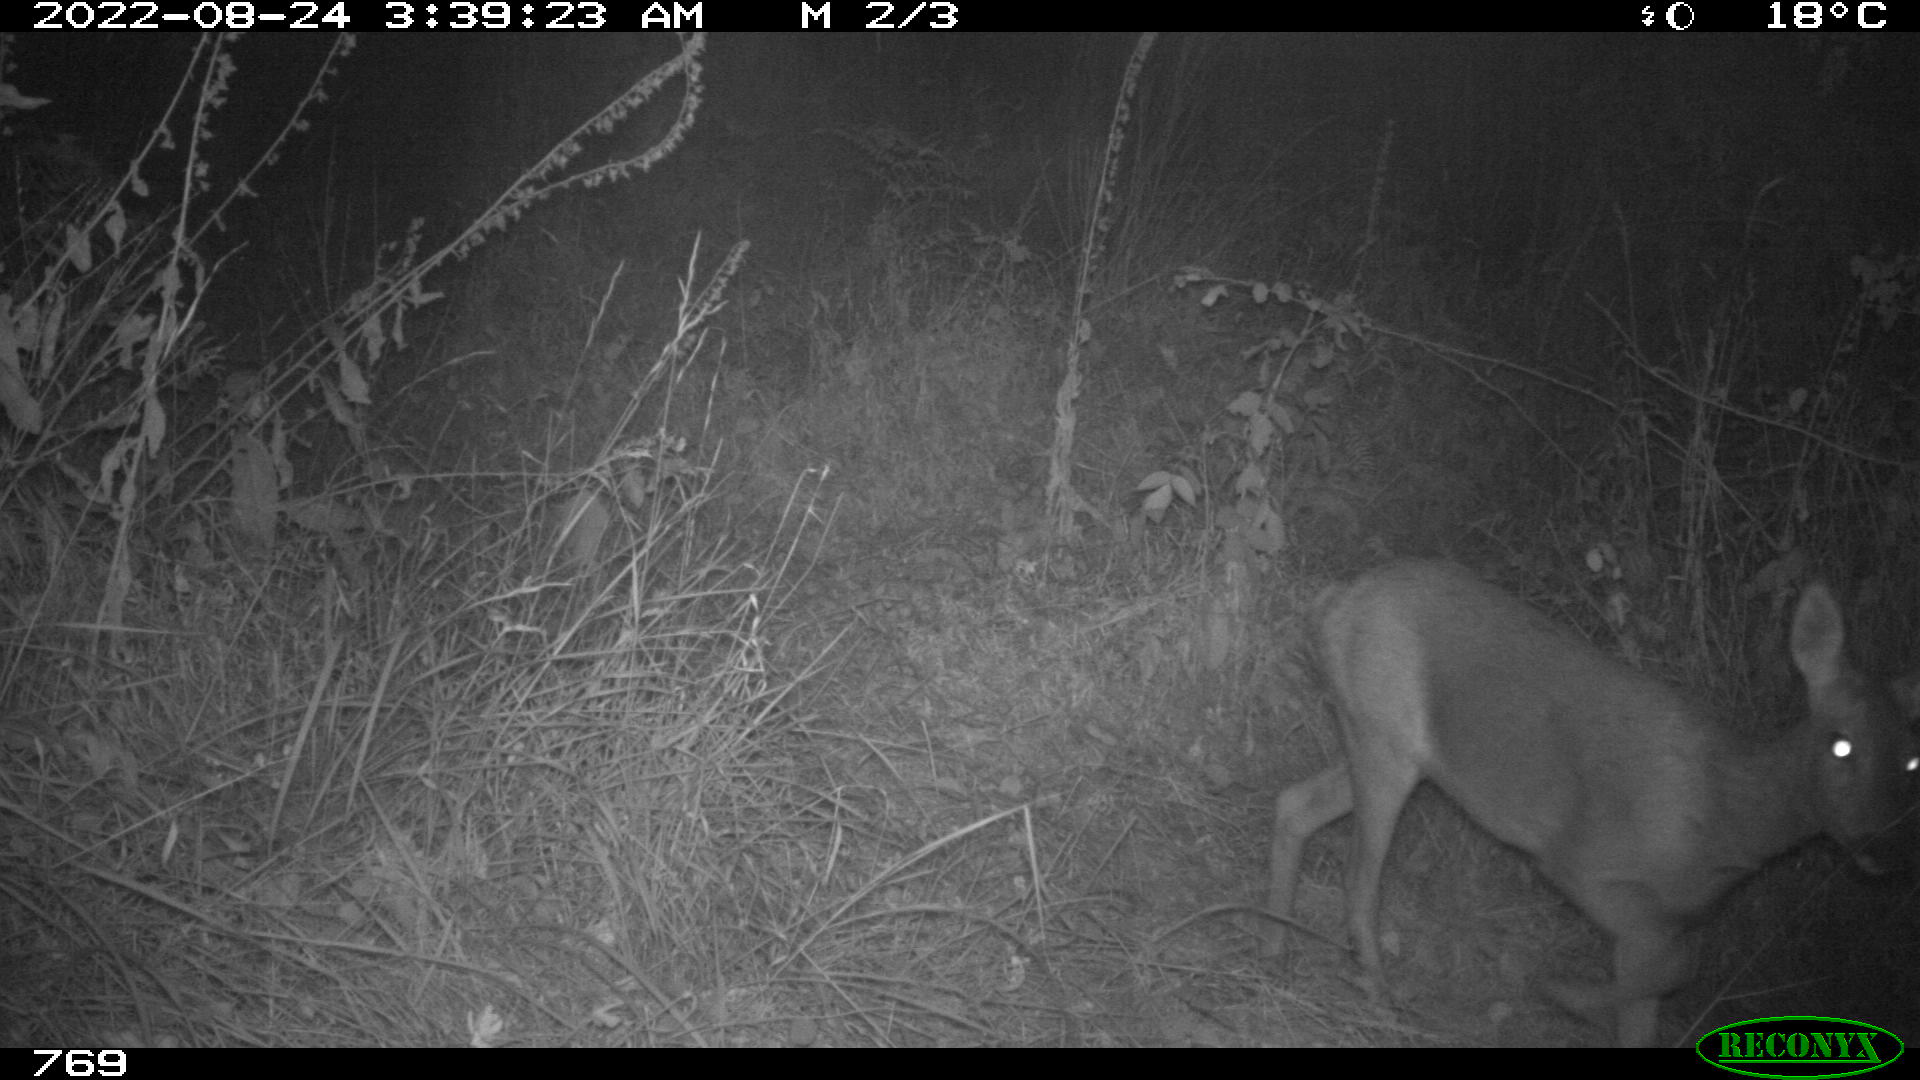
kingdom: Animalia
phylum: Chordata
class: Mammalia
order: Artiodactyla
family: Cervidae
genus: Capreolus
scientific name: Capreolus capreolus
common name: Western roe deer
